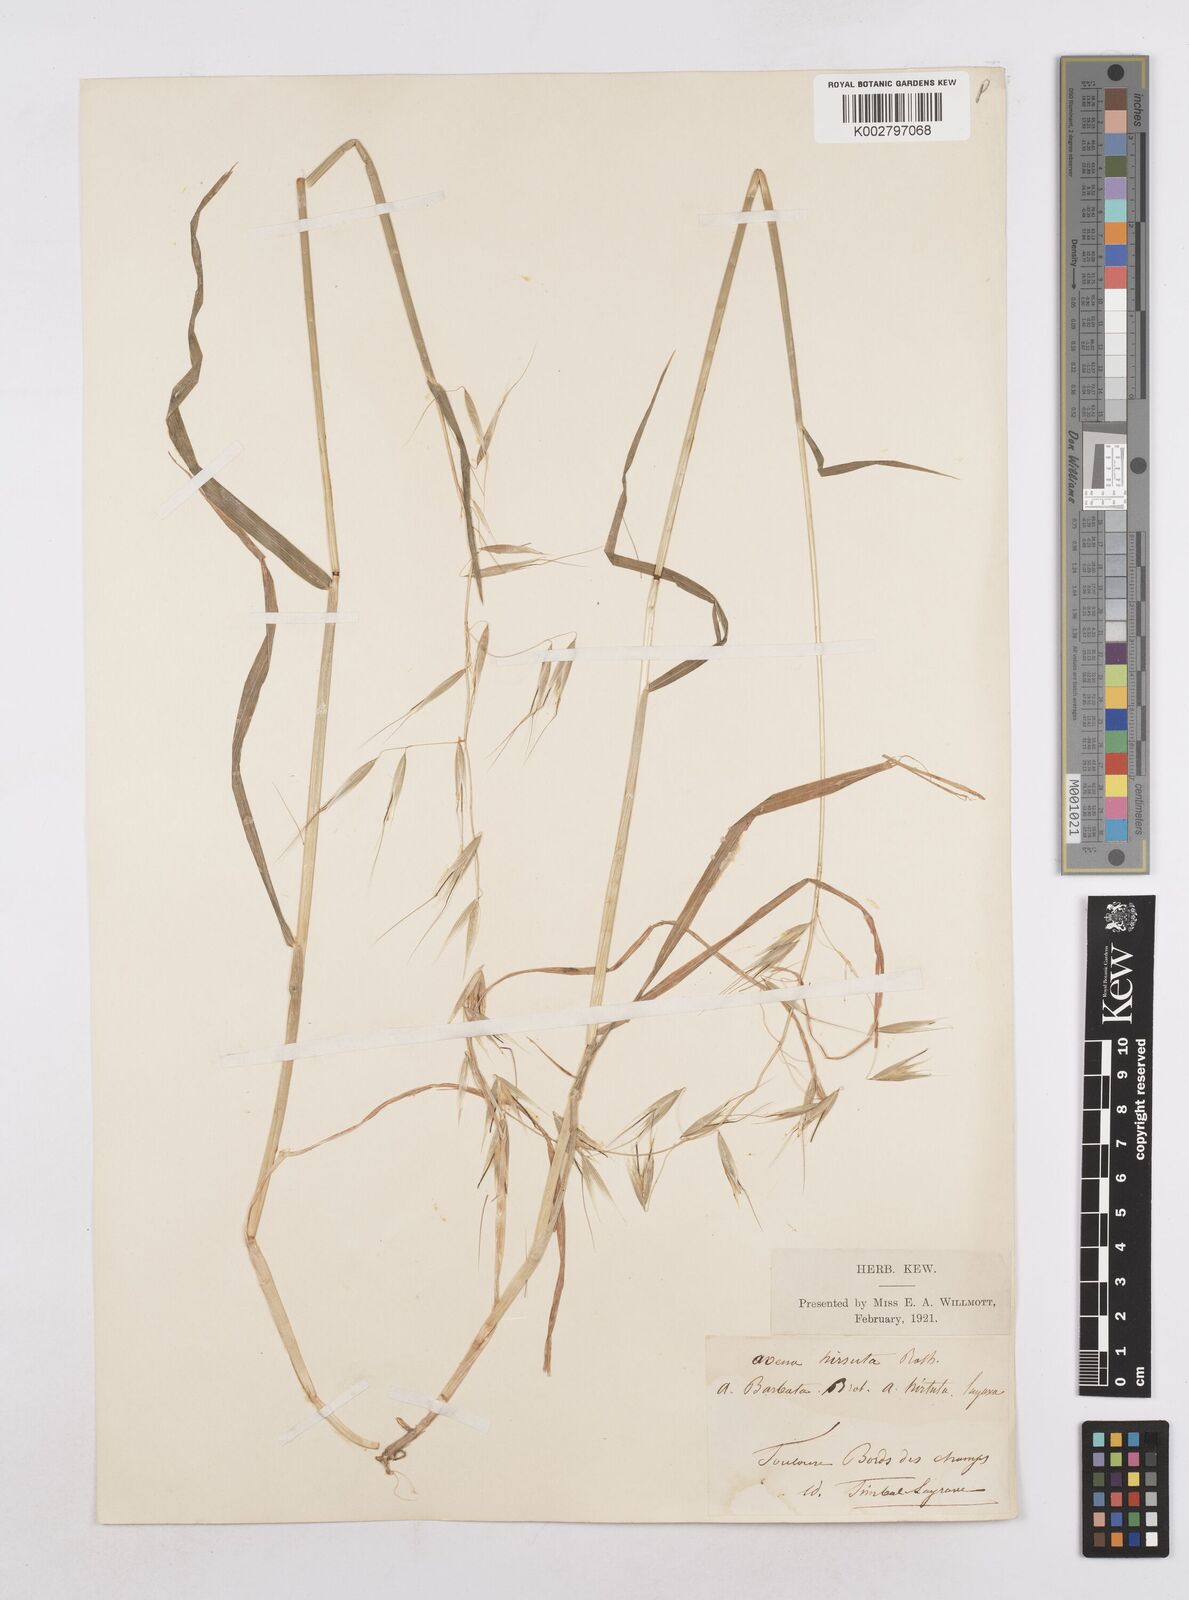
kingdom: Plantae
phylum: Tracheophyta
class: Liliopsida
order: Poales
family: Poaceae
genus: Avena
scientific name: Avena
